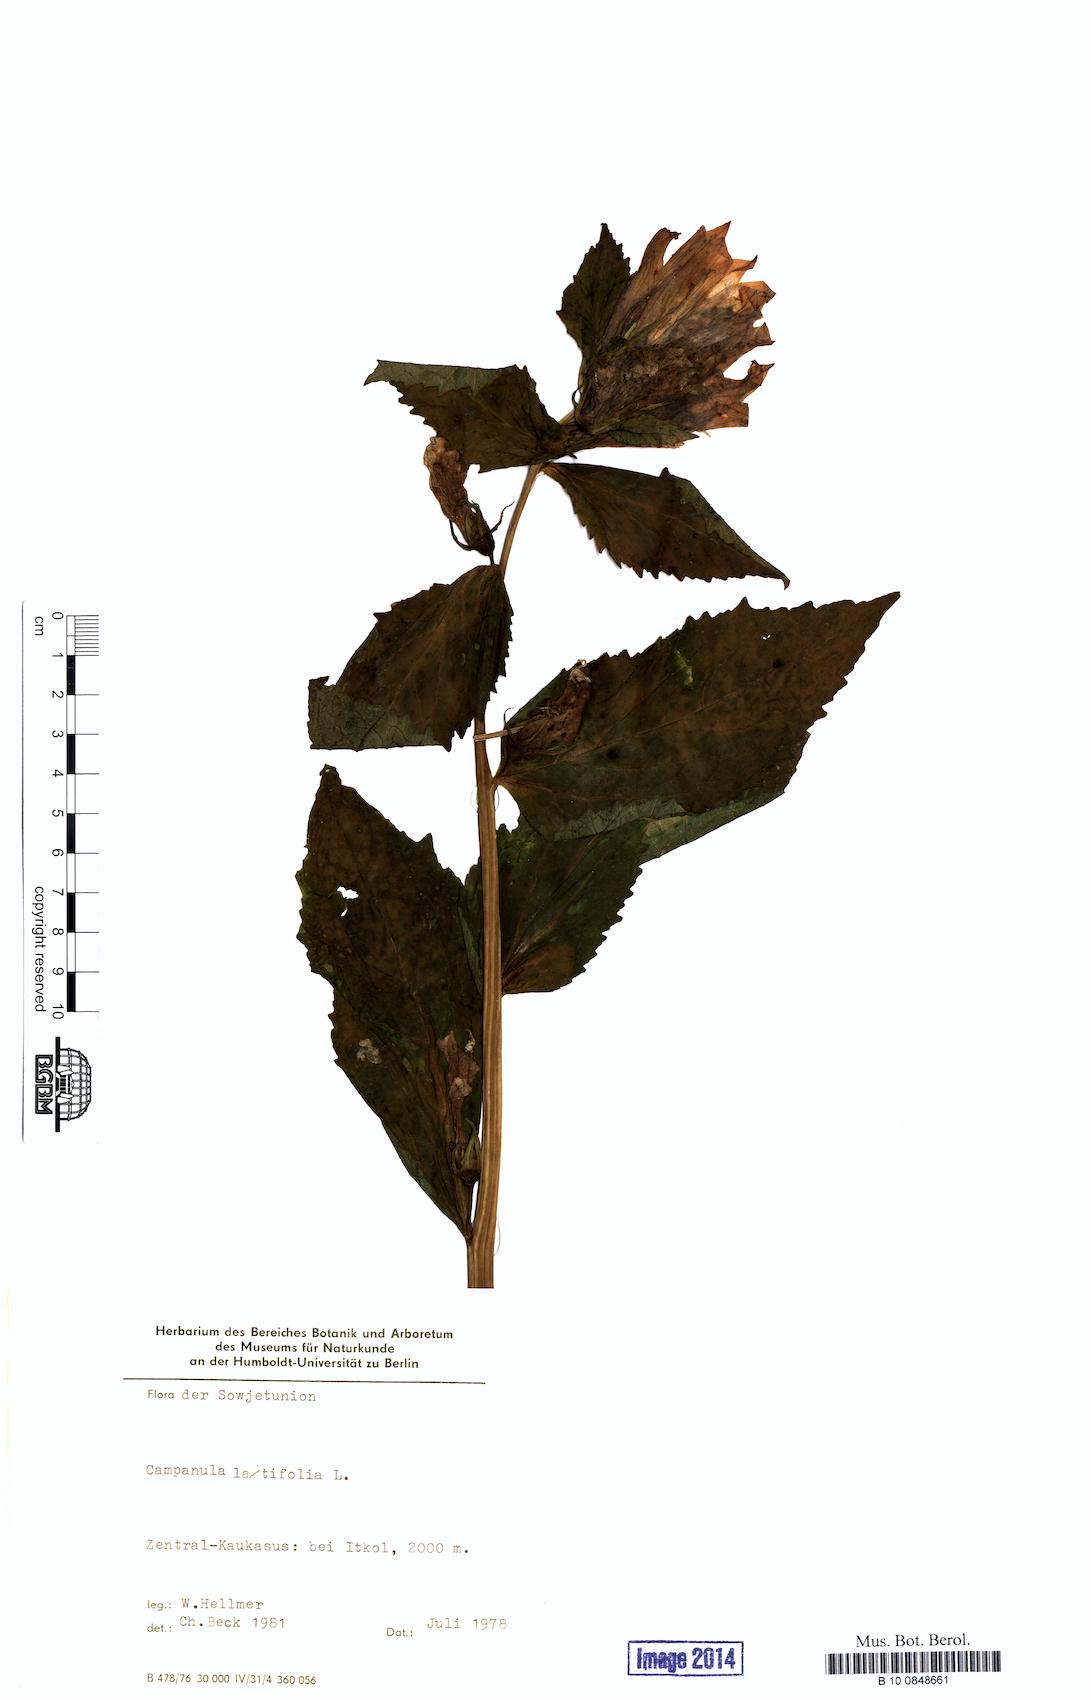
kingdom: Plantae
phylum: Tracheophyta
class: Magnoliopsida
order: Asterales
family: Campanulaceae
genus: Campanula
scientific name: Campanula latifolia
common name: Giant bellflower
